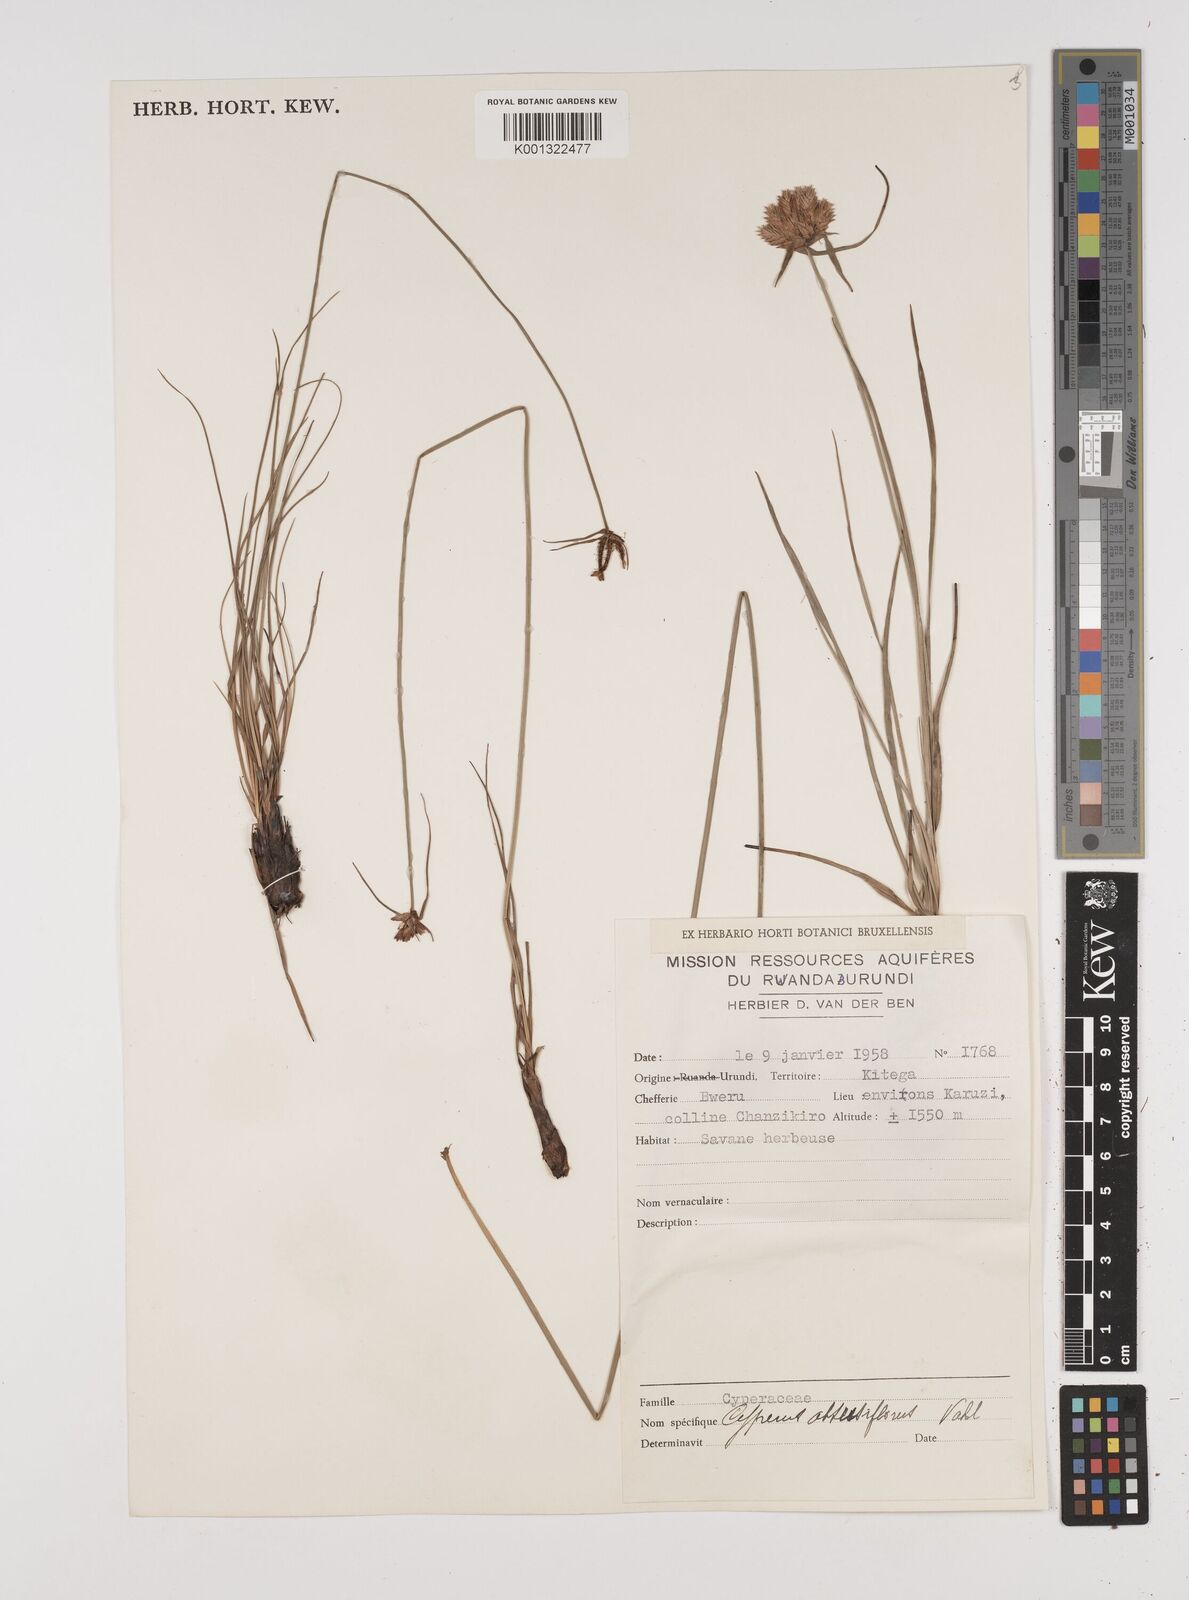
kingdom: Plantae
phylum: Tracheophyta
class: Liliopsida
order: Poales
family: Cyperaceae
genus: Cyperus
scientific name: Cyperus niveus
